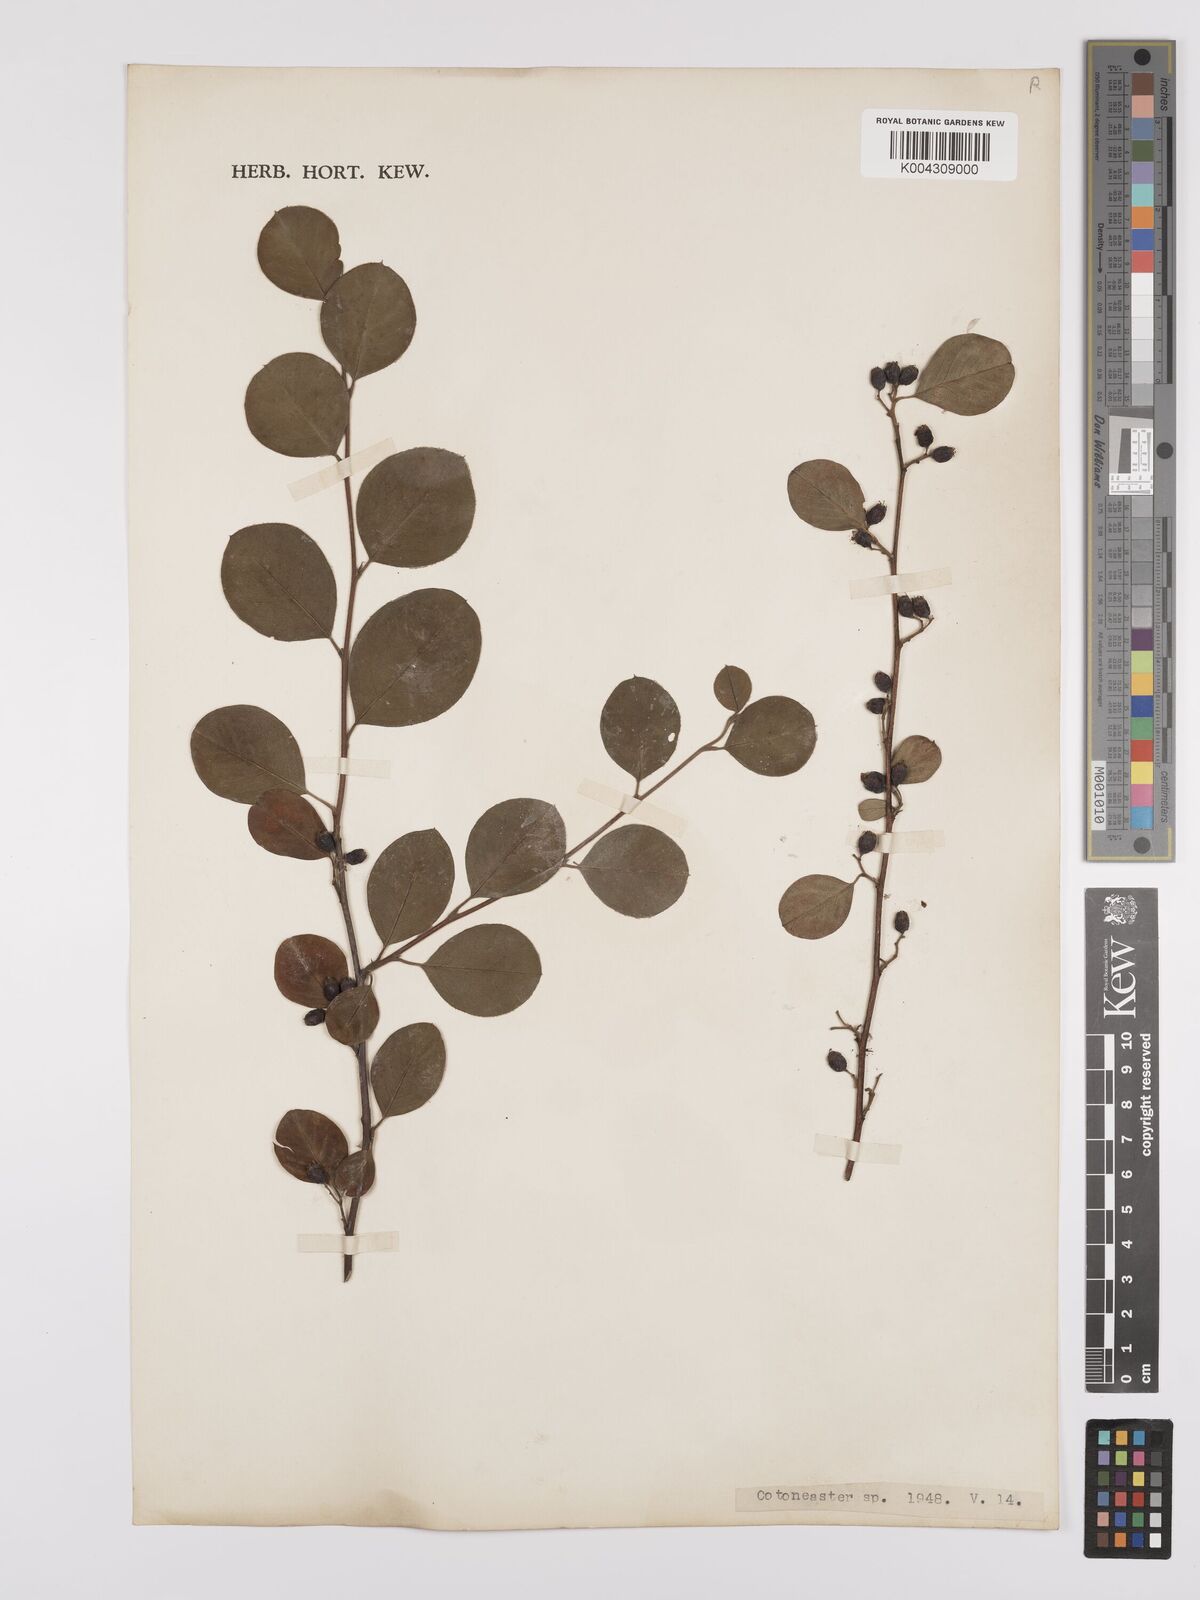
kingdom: Plantae
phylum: Tracheophyta
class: Magnoliopsida
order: Rosales
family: Rosaceae
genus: Cotoneaster
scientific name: Cotoneaster
